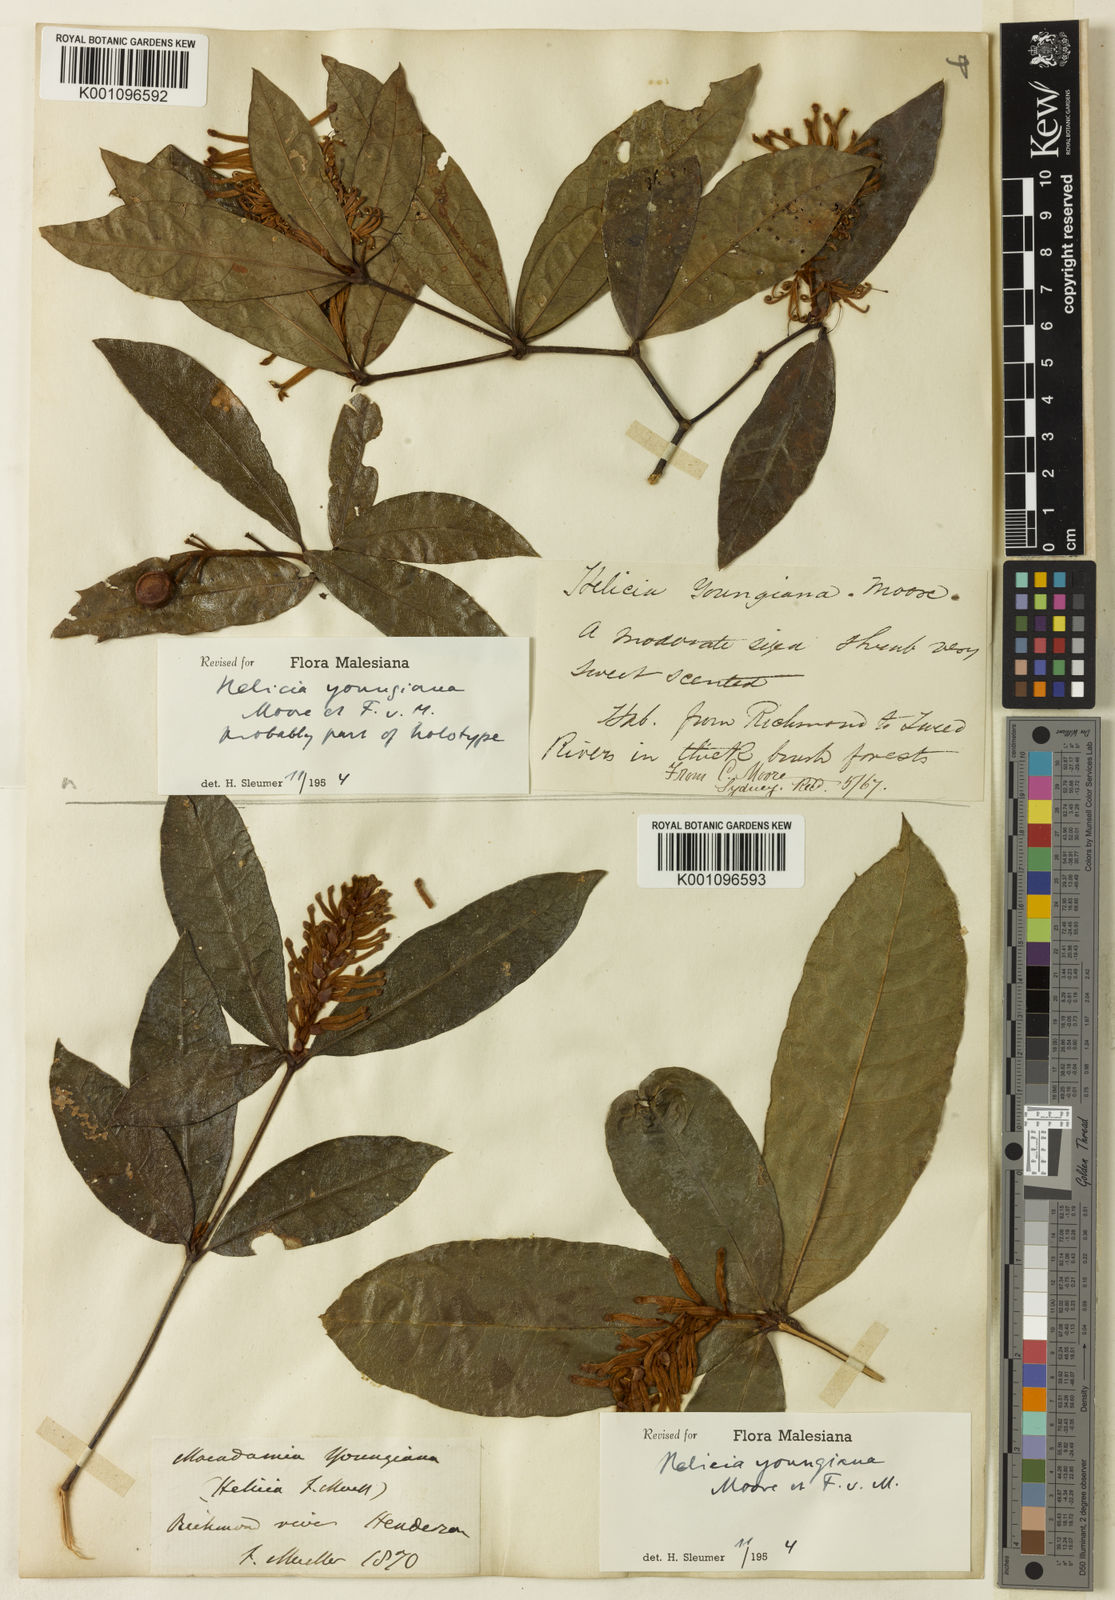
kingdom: Plantae
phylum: Tracheophyta
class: Magnoliopsida
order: Proteales
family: Proteaceae
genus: Triunia
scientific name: Triunia youngiana
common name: Rednut
